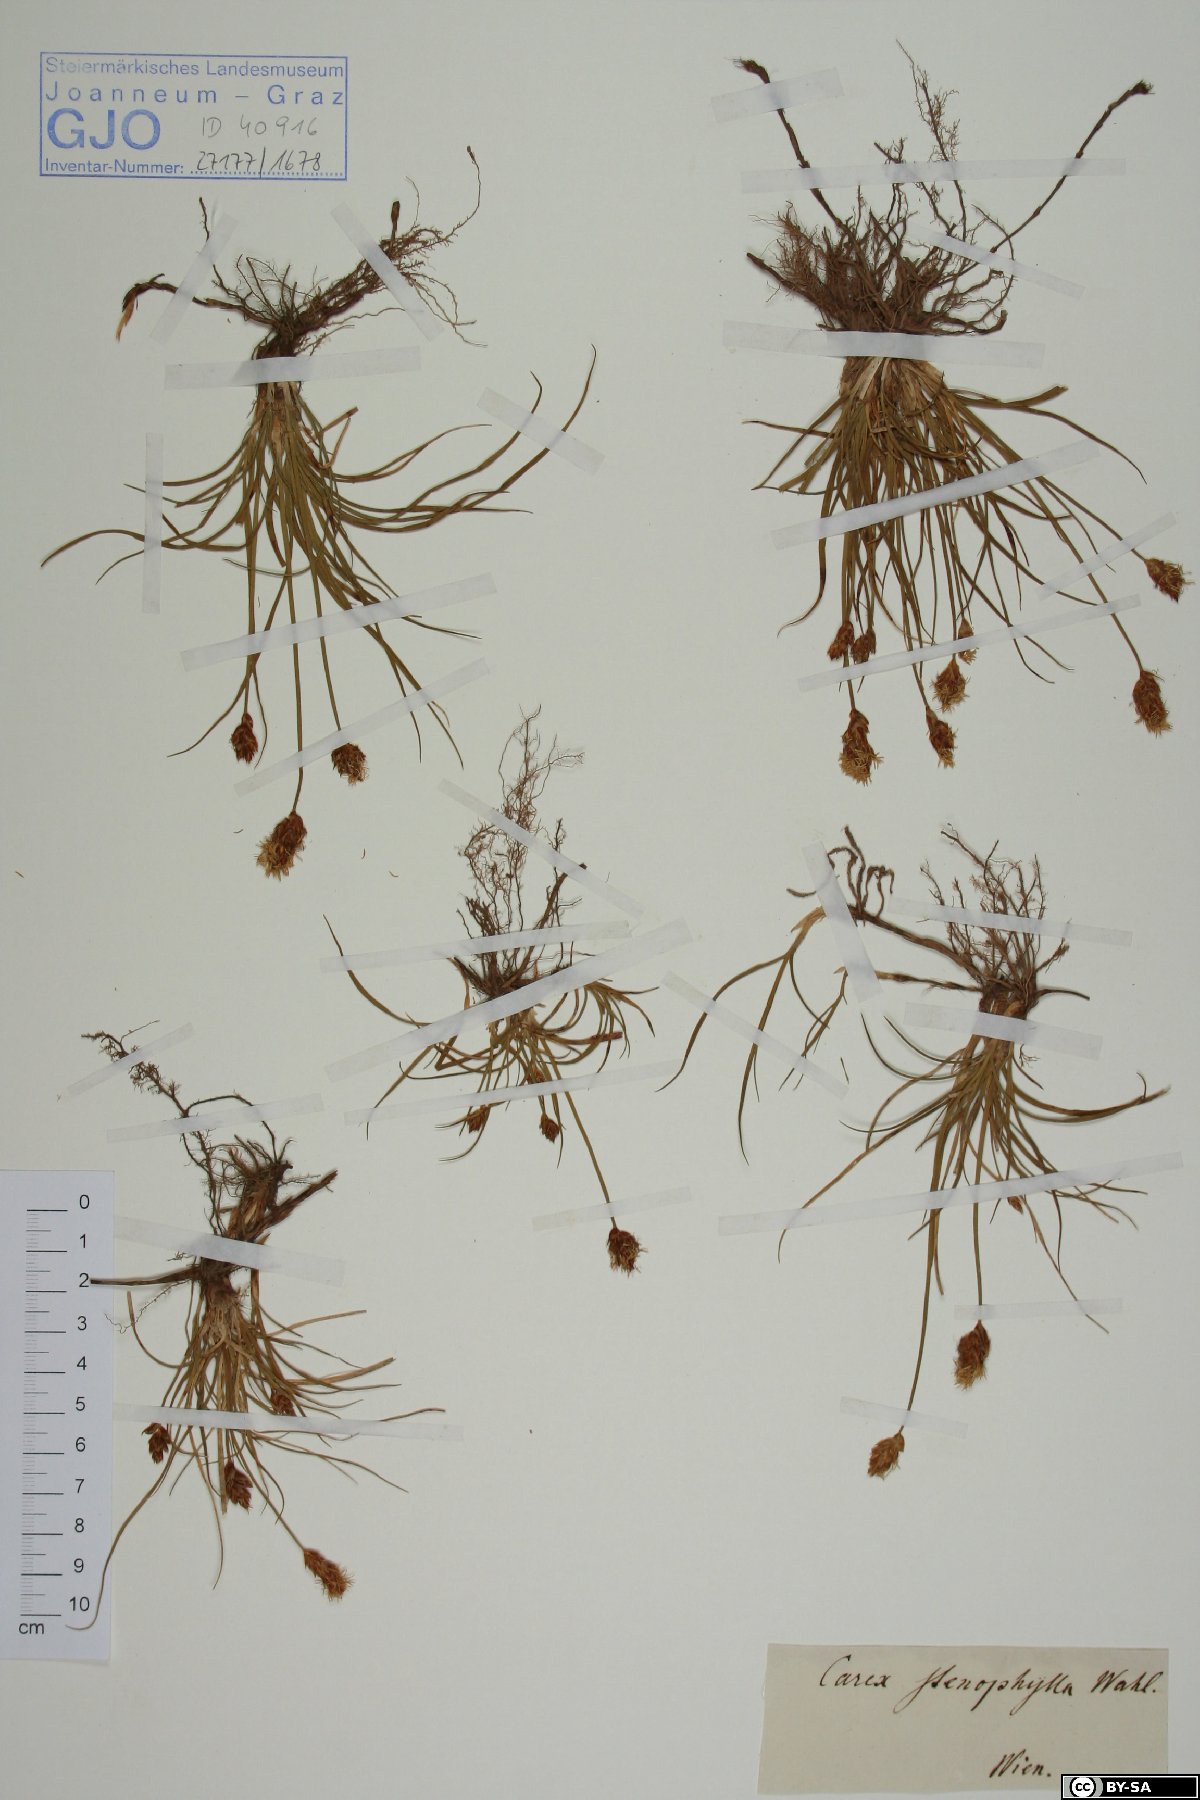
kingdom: Plantae
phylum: Tracheophyta
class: Liliopsida
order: Poales
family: Cyperaceae
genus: Carex
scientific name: Carex stenophylla
